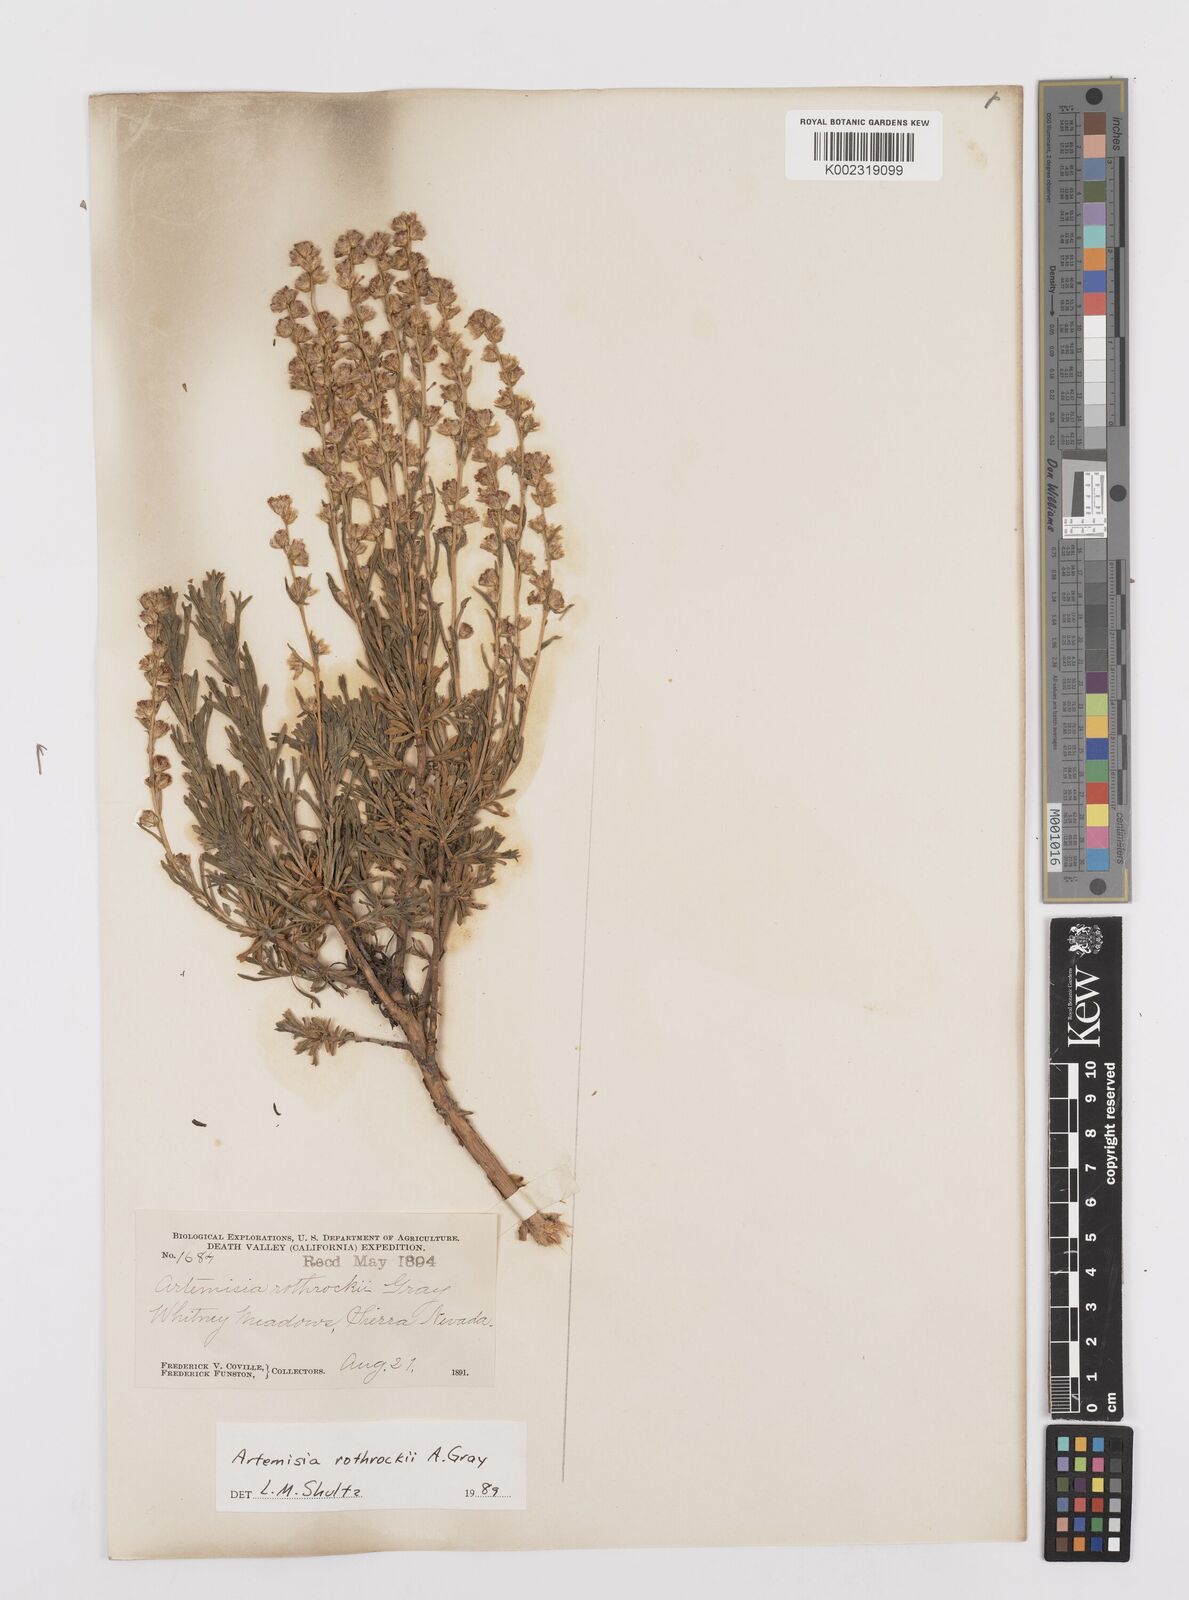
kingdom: Plantae
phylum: Tracheophyta
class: Magnoliopsida
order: Asterales
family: Asteraceae
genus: Artemisia
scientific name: Artemisia rothrockii
